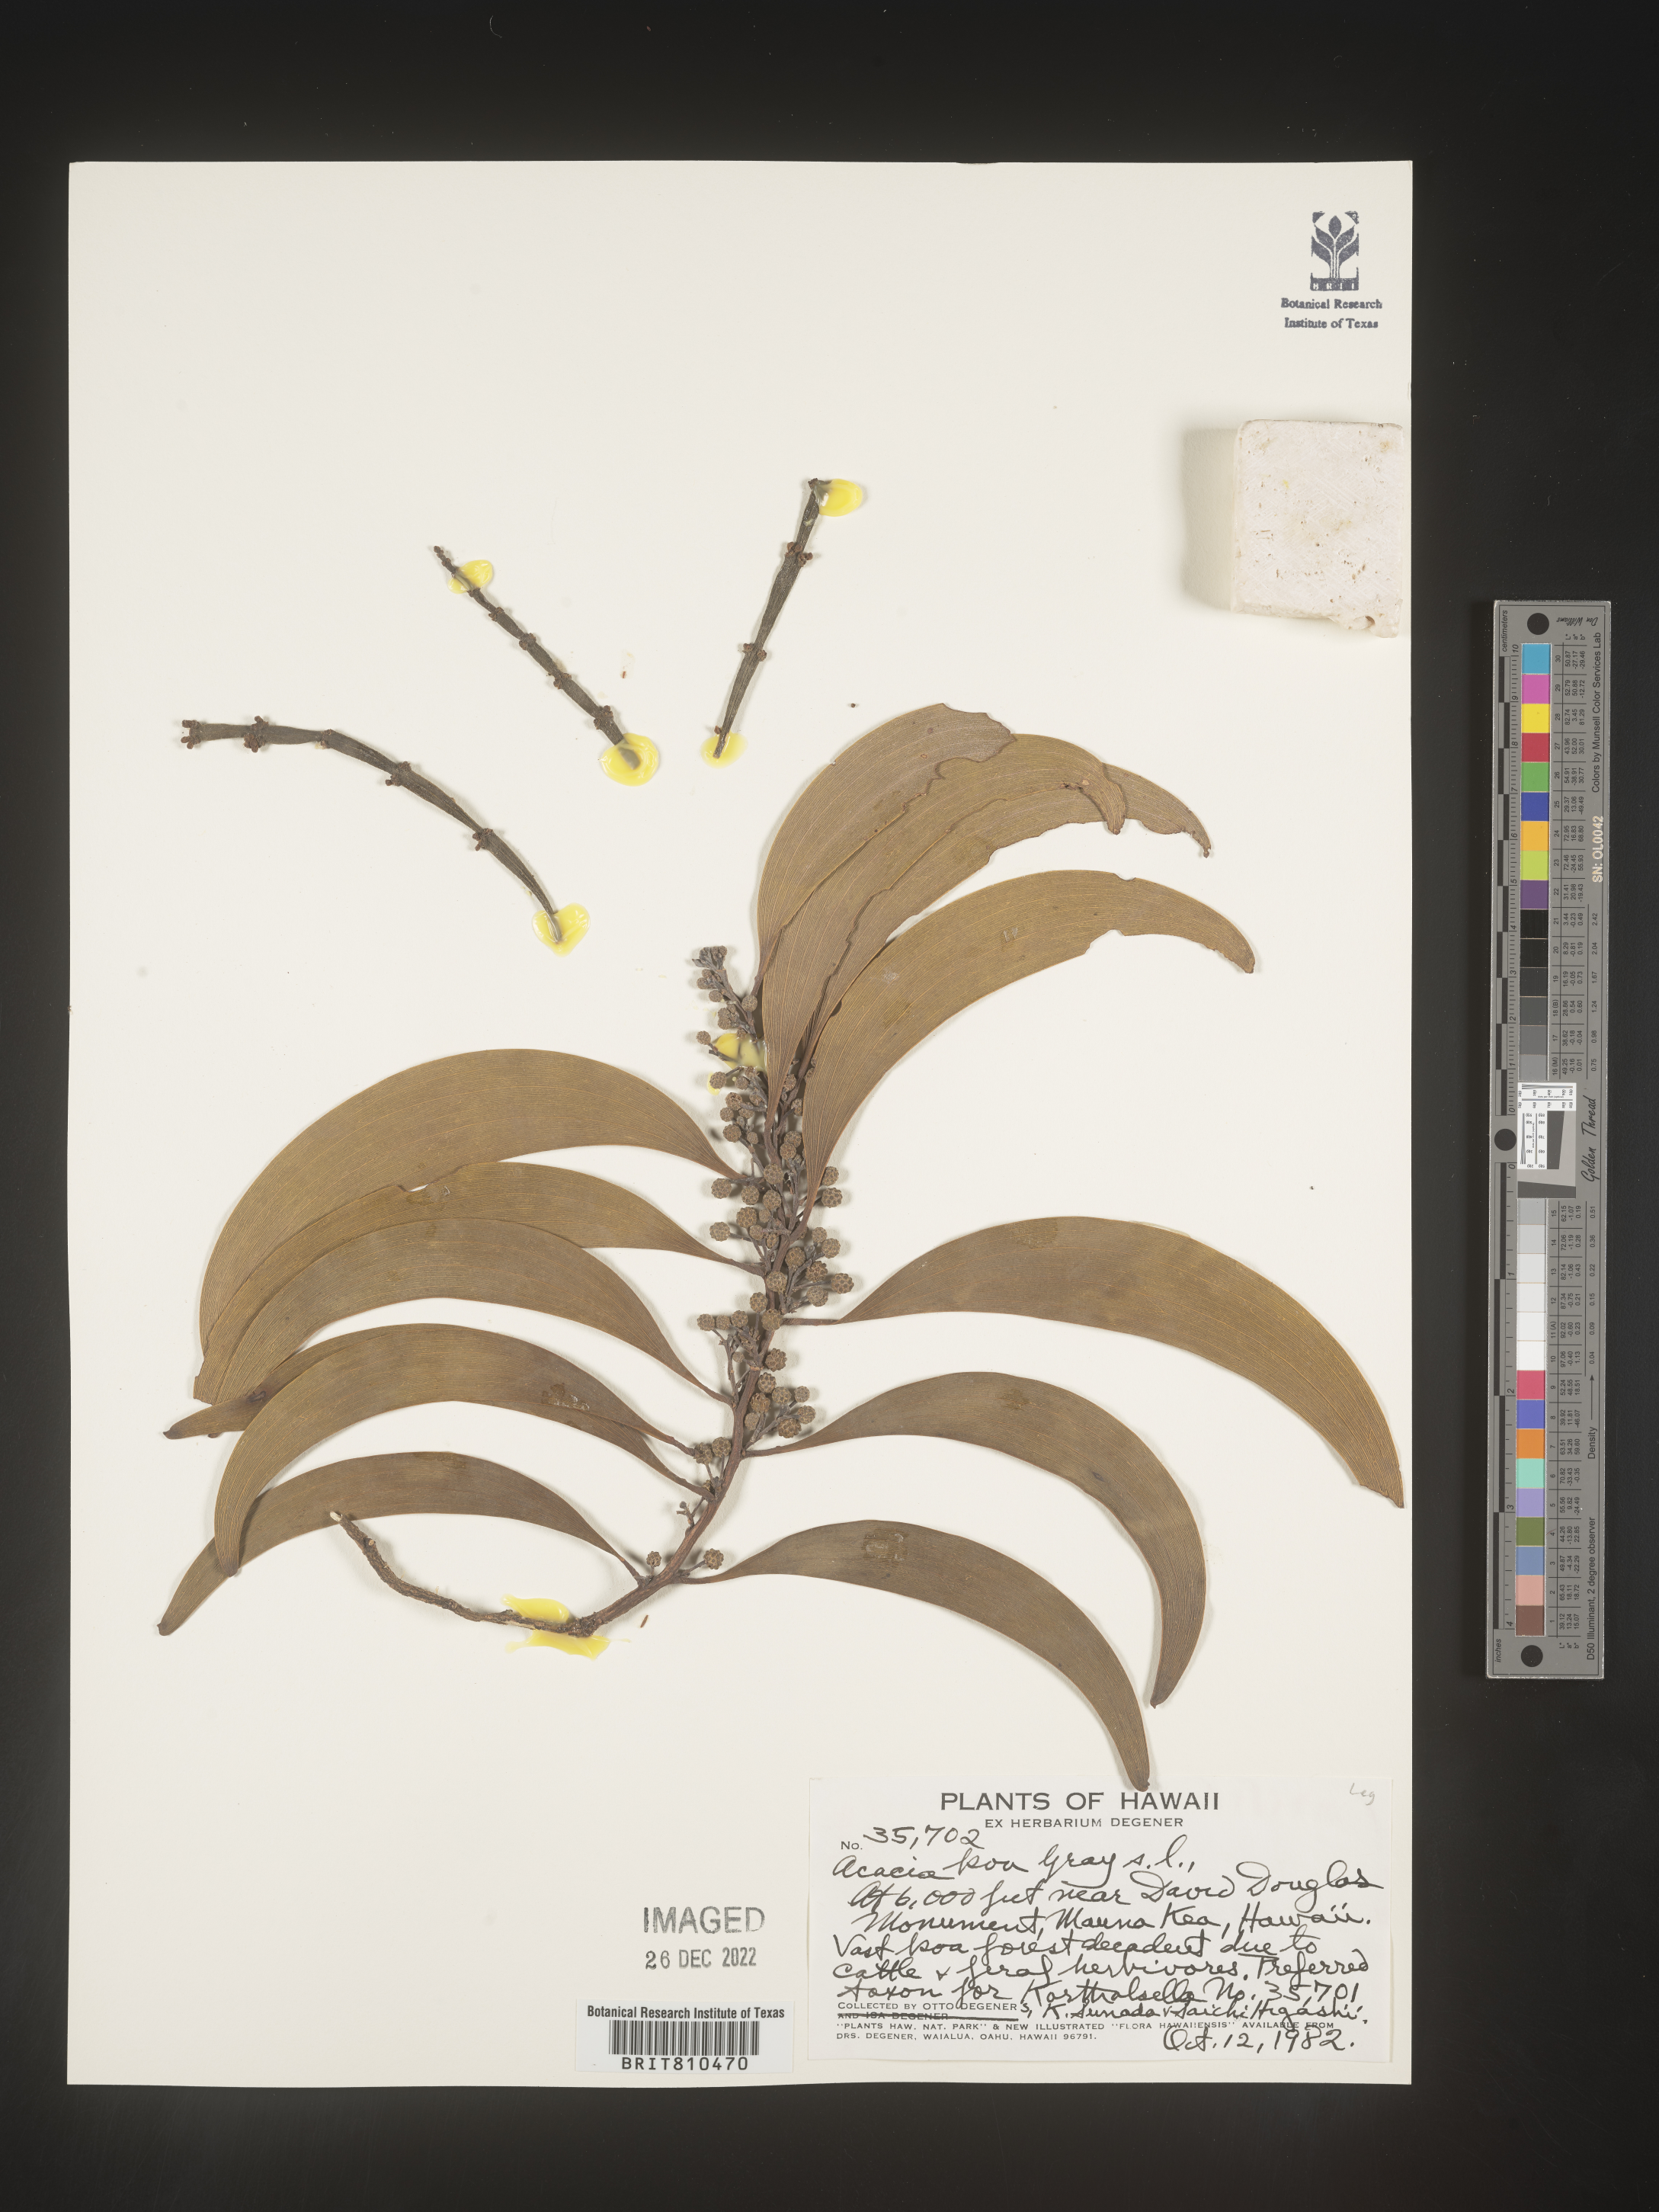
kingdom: Plantae
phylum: Tracheophyta
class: Magnoliopsida
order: Fabales
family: Fabaceae
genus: Acacia
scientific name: Acacia
